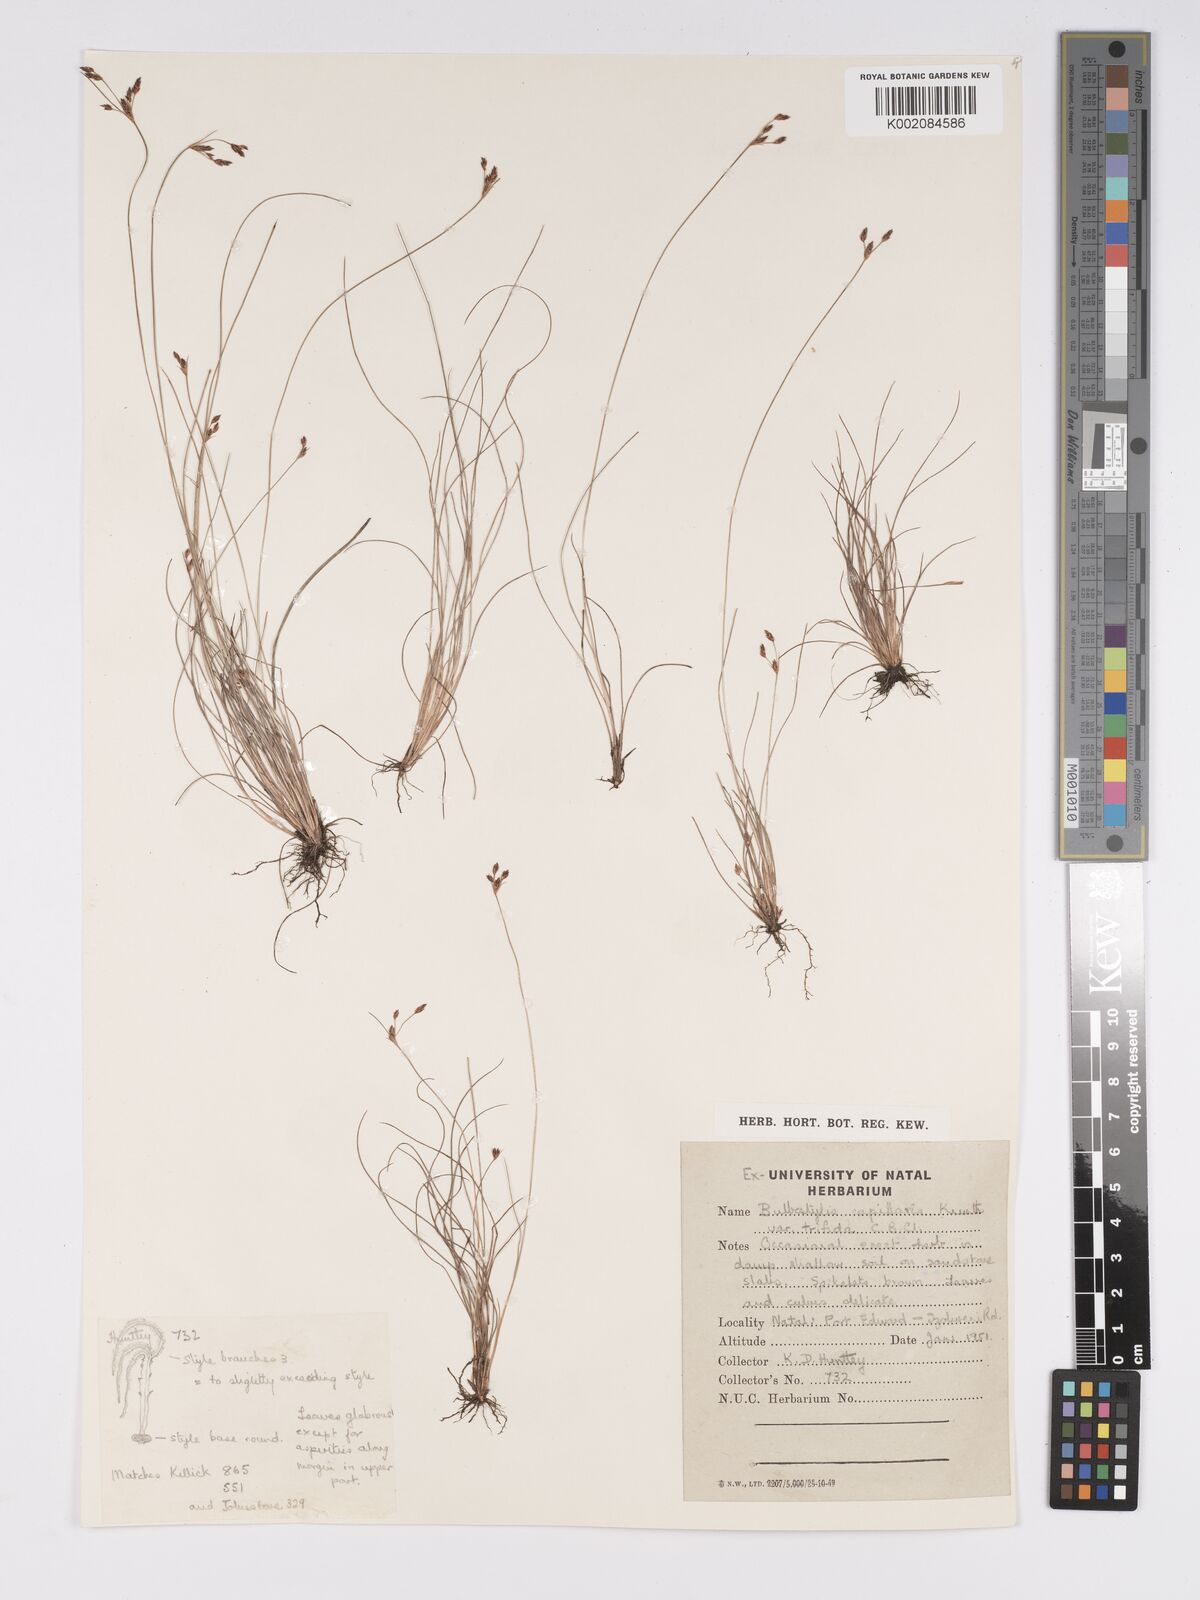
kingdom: Plantae
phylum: Tracheophyta
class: Liliopsida
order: Poales
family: Cyperaceae
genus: Bulbostylis
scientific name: Bulbostylis capillaris
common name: Densetuft hairsedge
